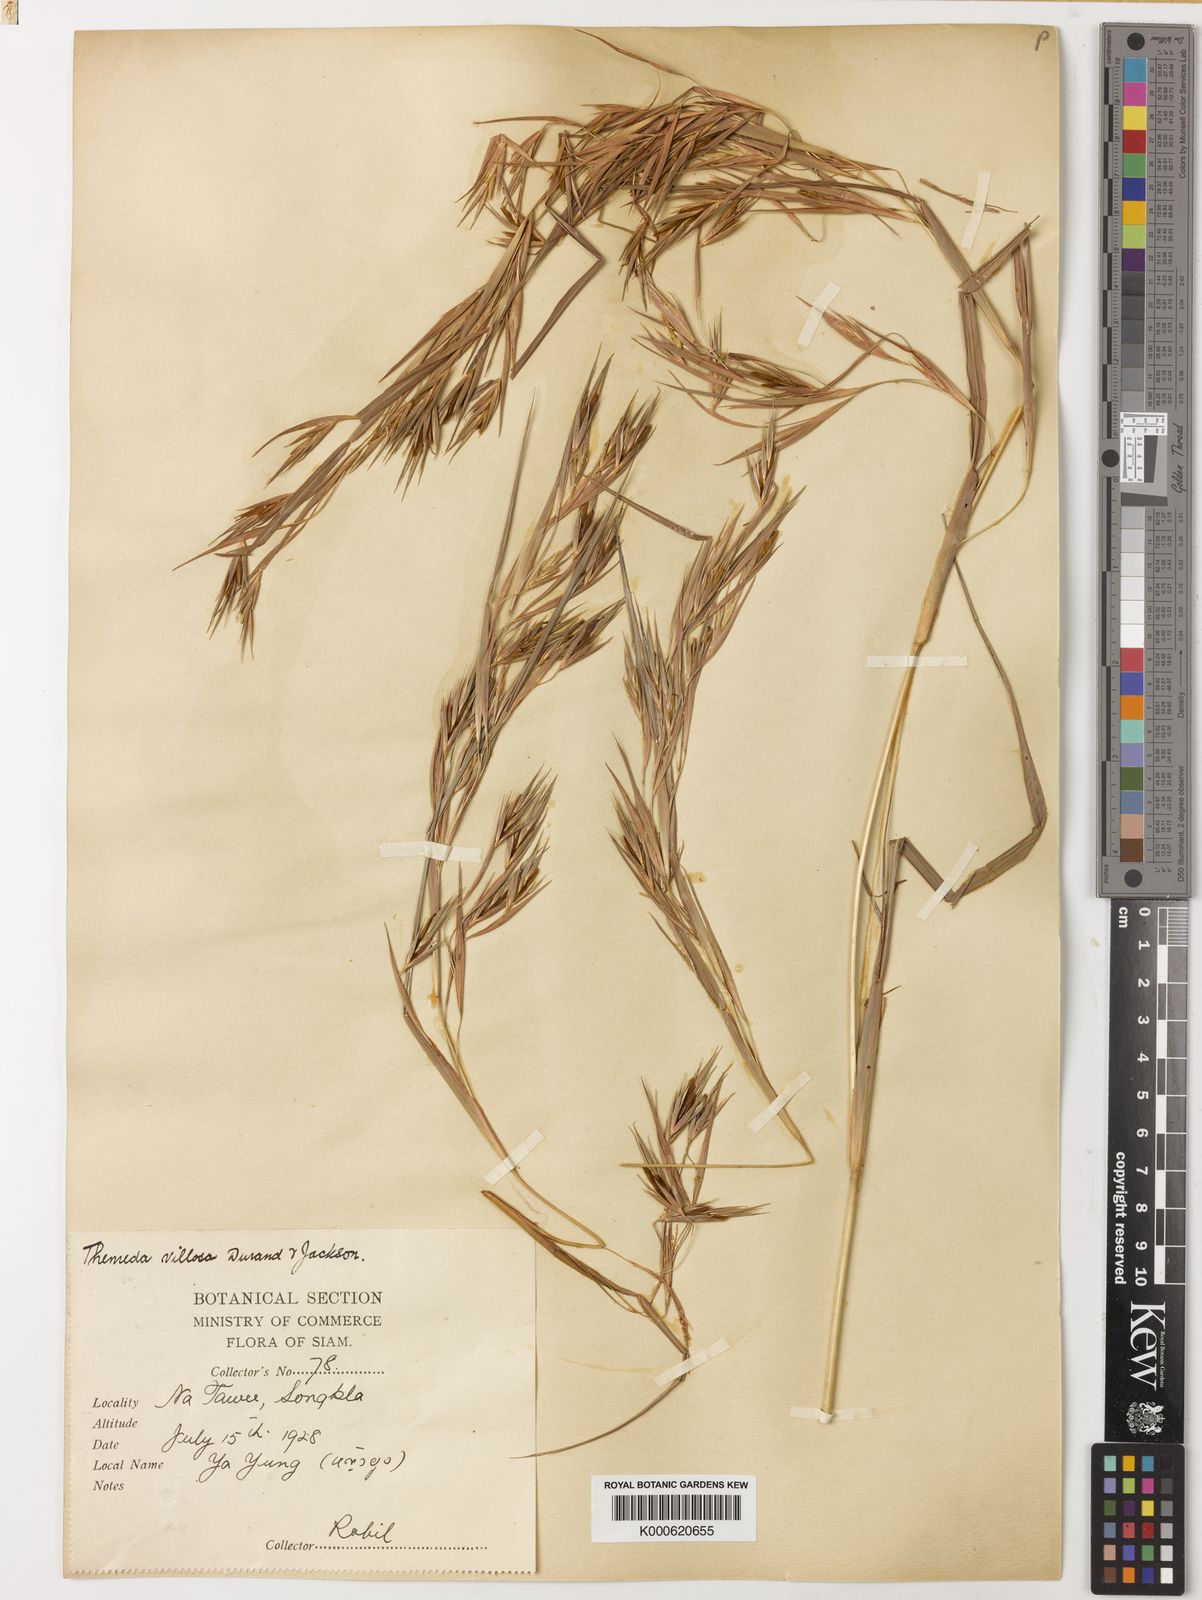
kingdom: Plantae
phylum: Tracheophyta
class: Liliopsida
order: Poales
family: Poaceae
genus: Themeda
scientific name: Themeda villosa
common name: Silky kangaroo grass
